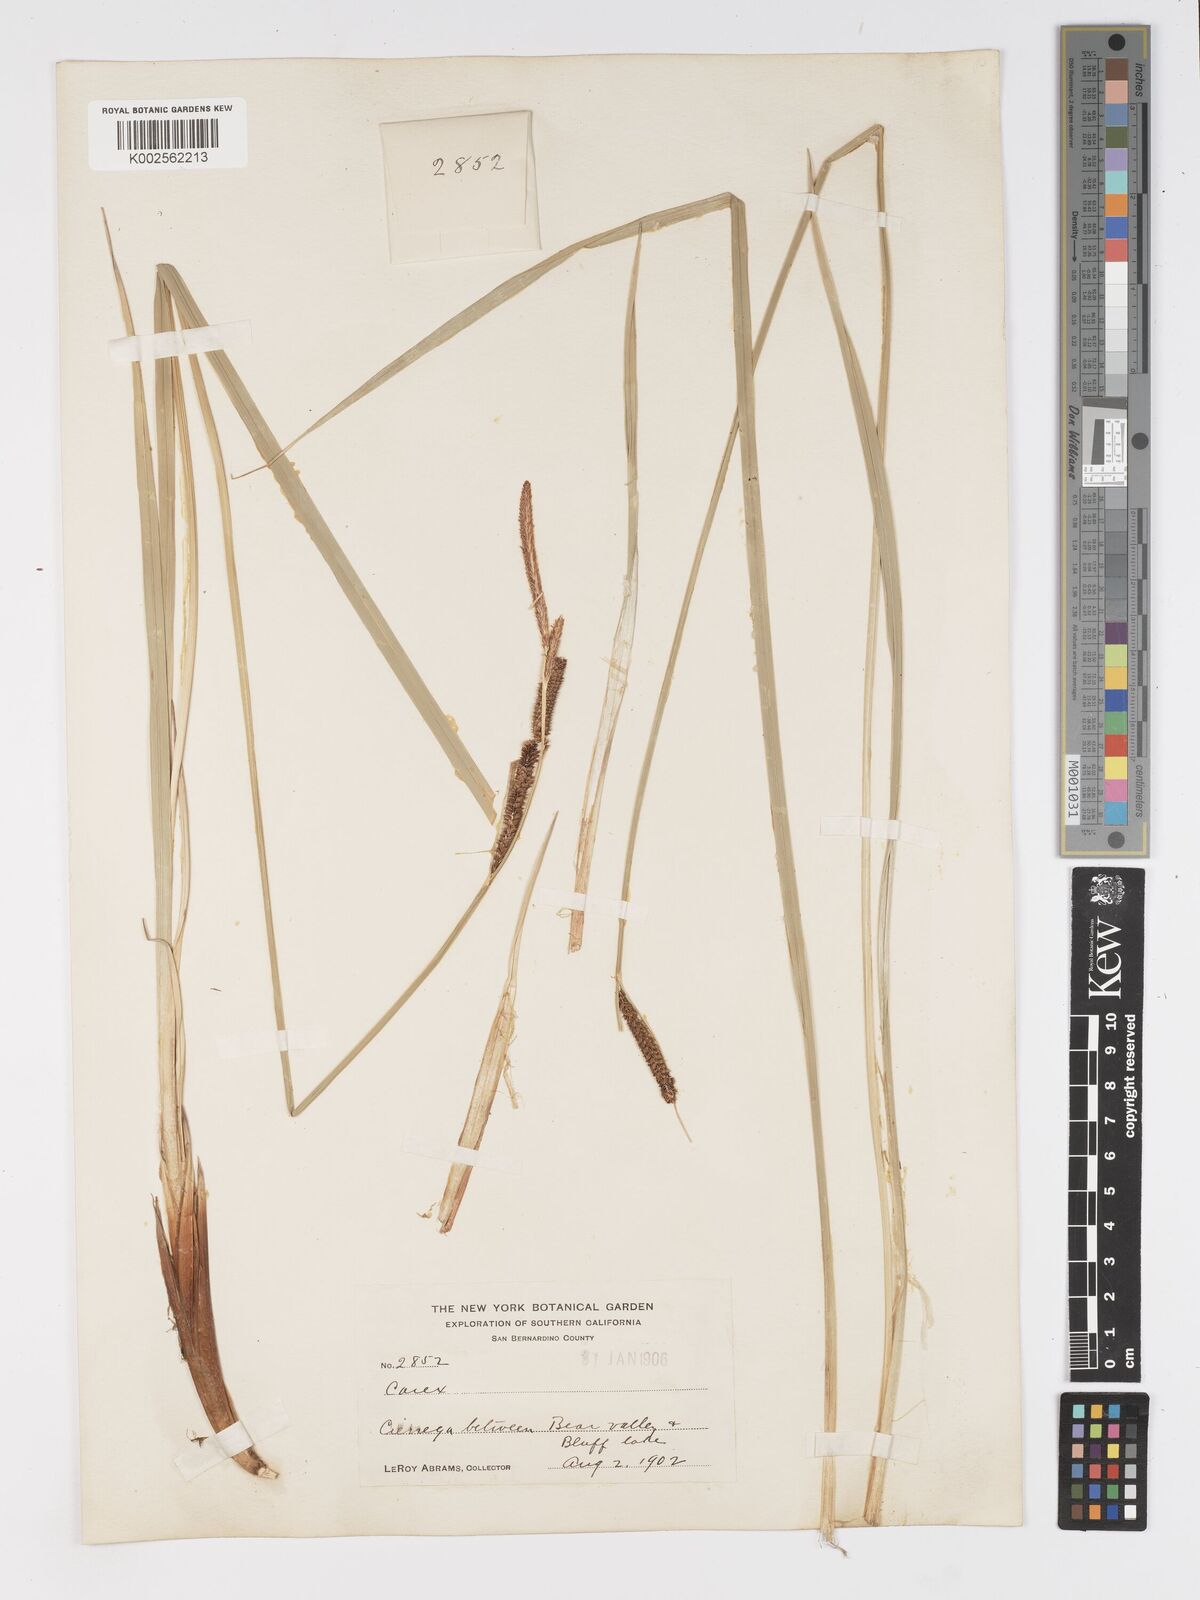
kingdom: Plantae
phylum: Tracheophyta
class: Liliopsida
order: Poales
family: Cyperaceae
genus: Carex
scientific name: Carex nigra
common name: Common sedge
